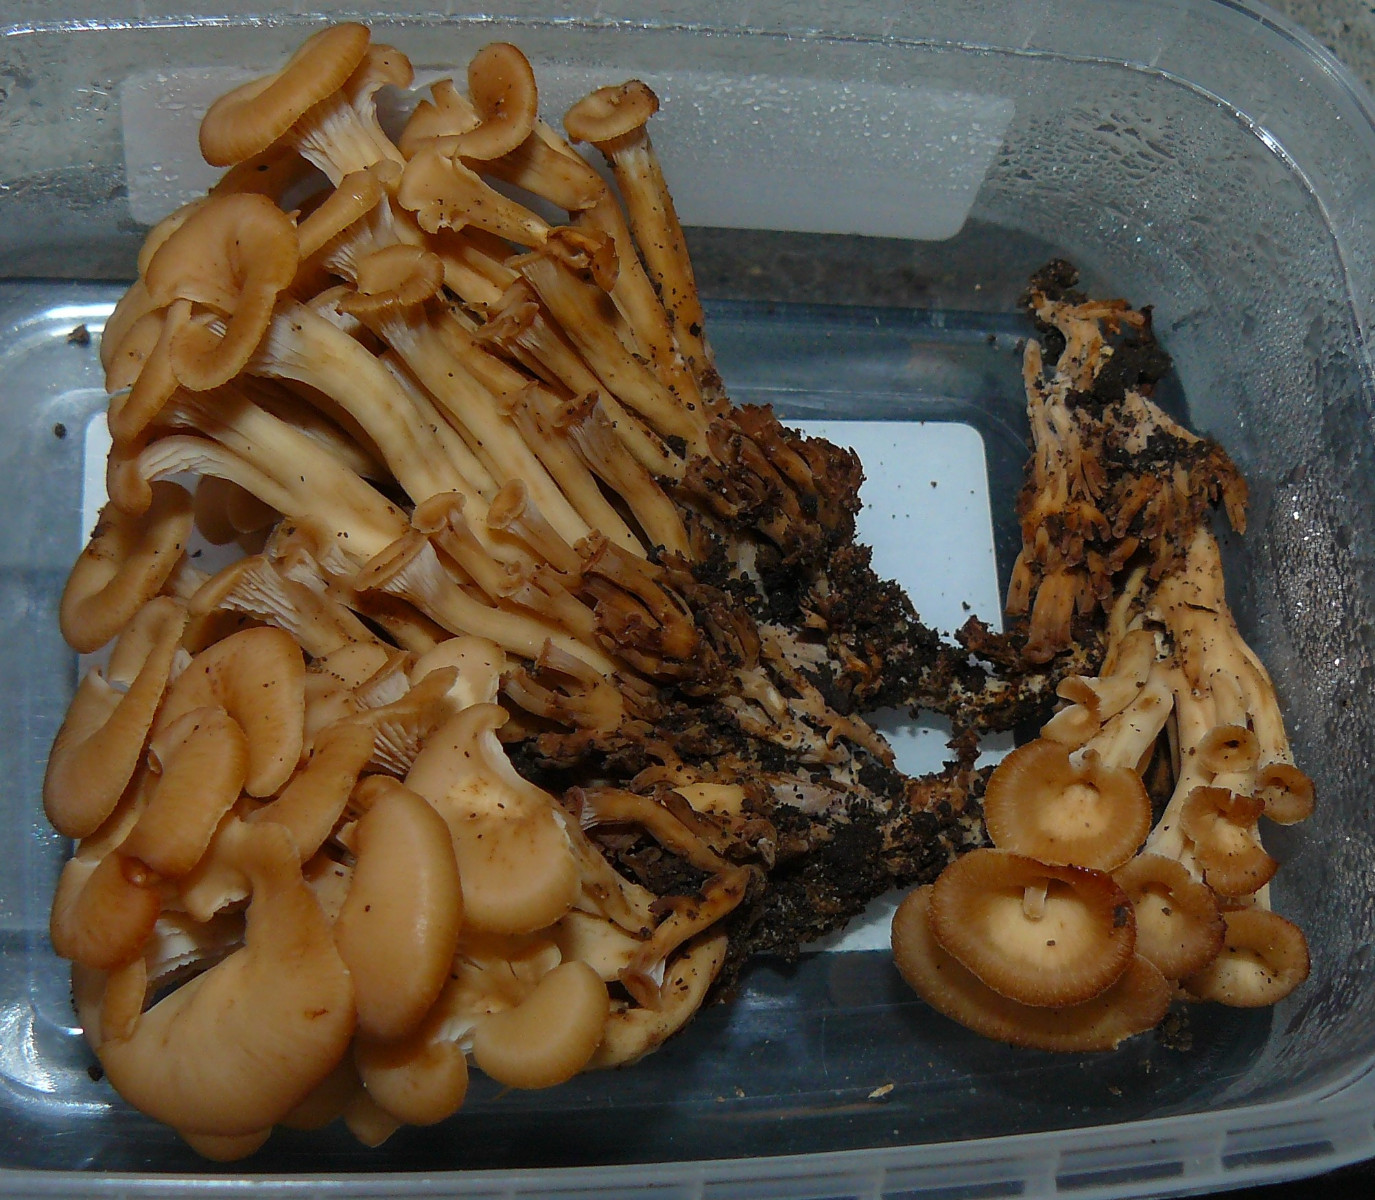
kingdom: Fungi
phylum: Basidiomycota
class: Agaricomycetes
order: Russulales
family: Auriscalpiaceae
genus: Lentinellus
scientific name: Lentinellus cochleatus
